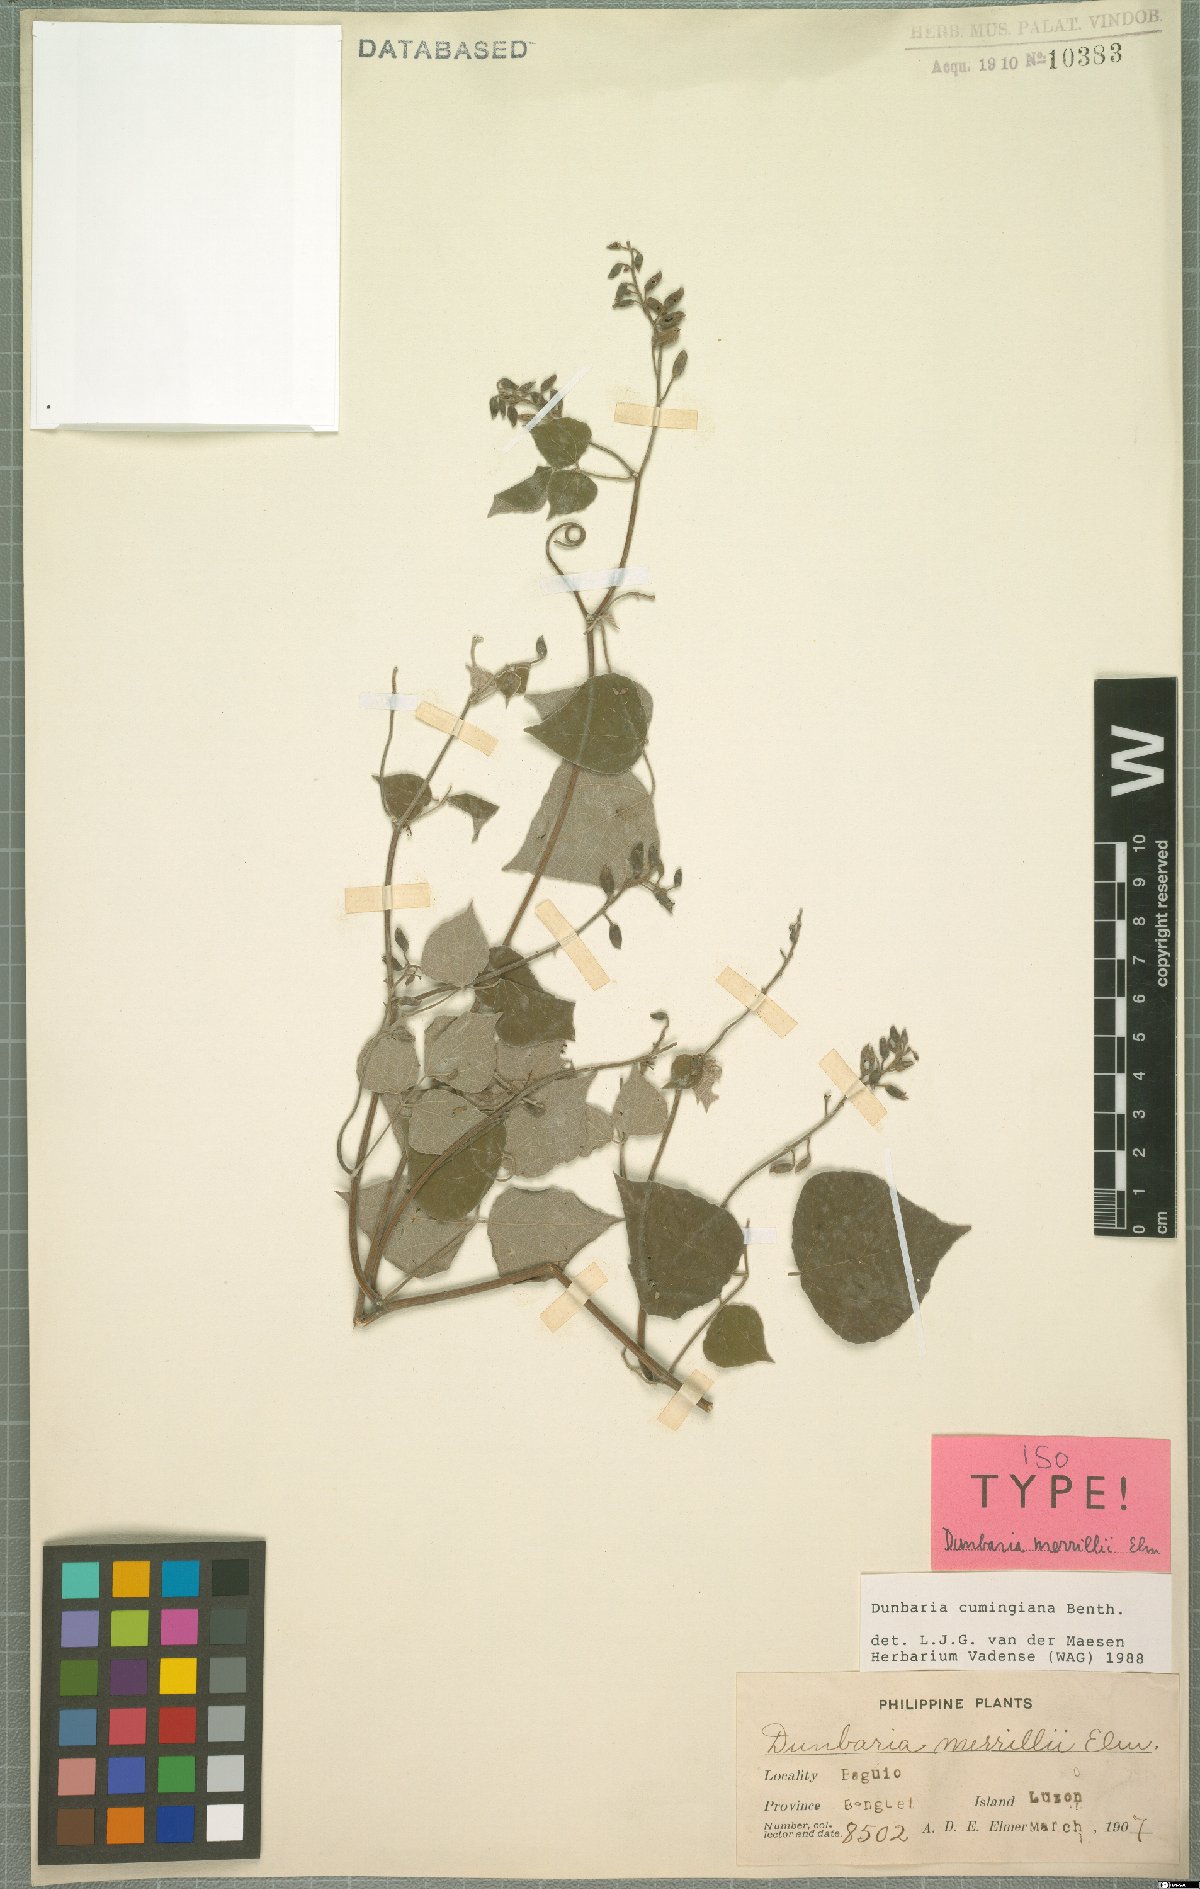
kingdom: Plantae
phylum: Tracheophyta
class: Magnoliopsida
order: Fabales
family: Fabaceae
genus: Dunbaria
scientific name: Dunbaria cumingiana
